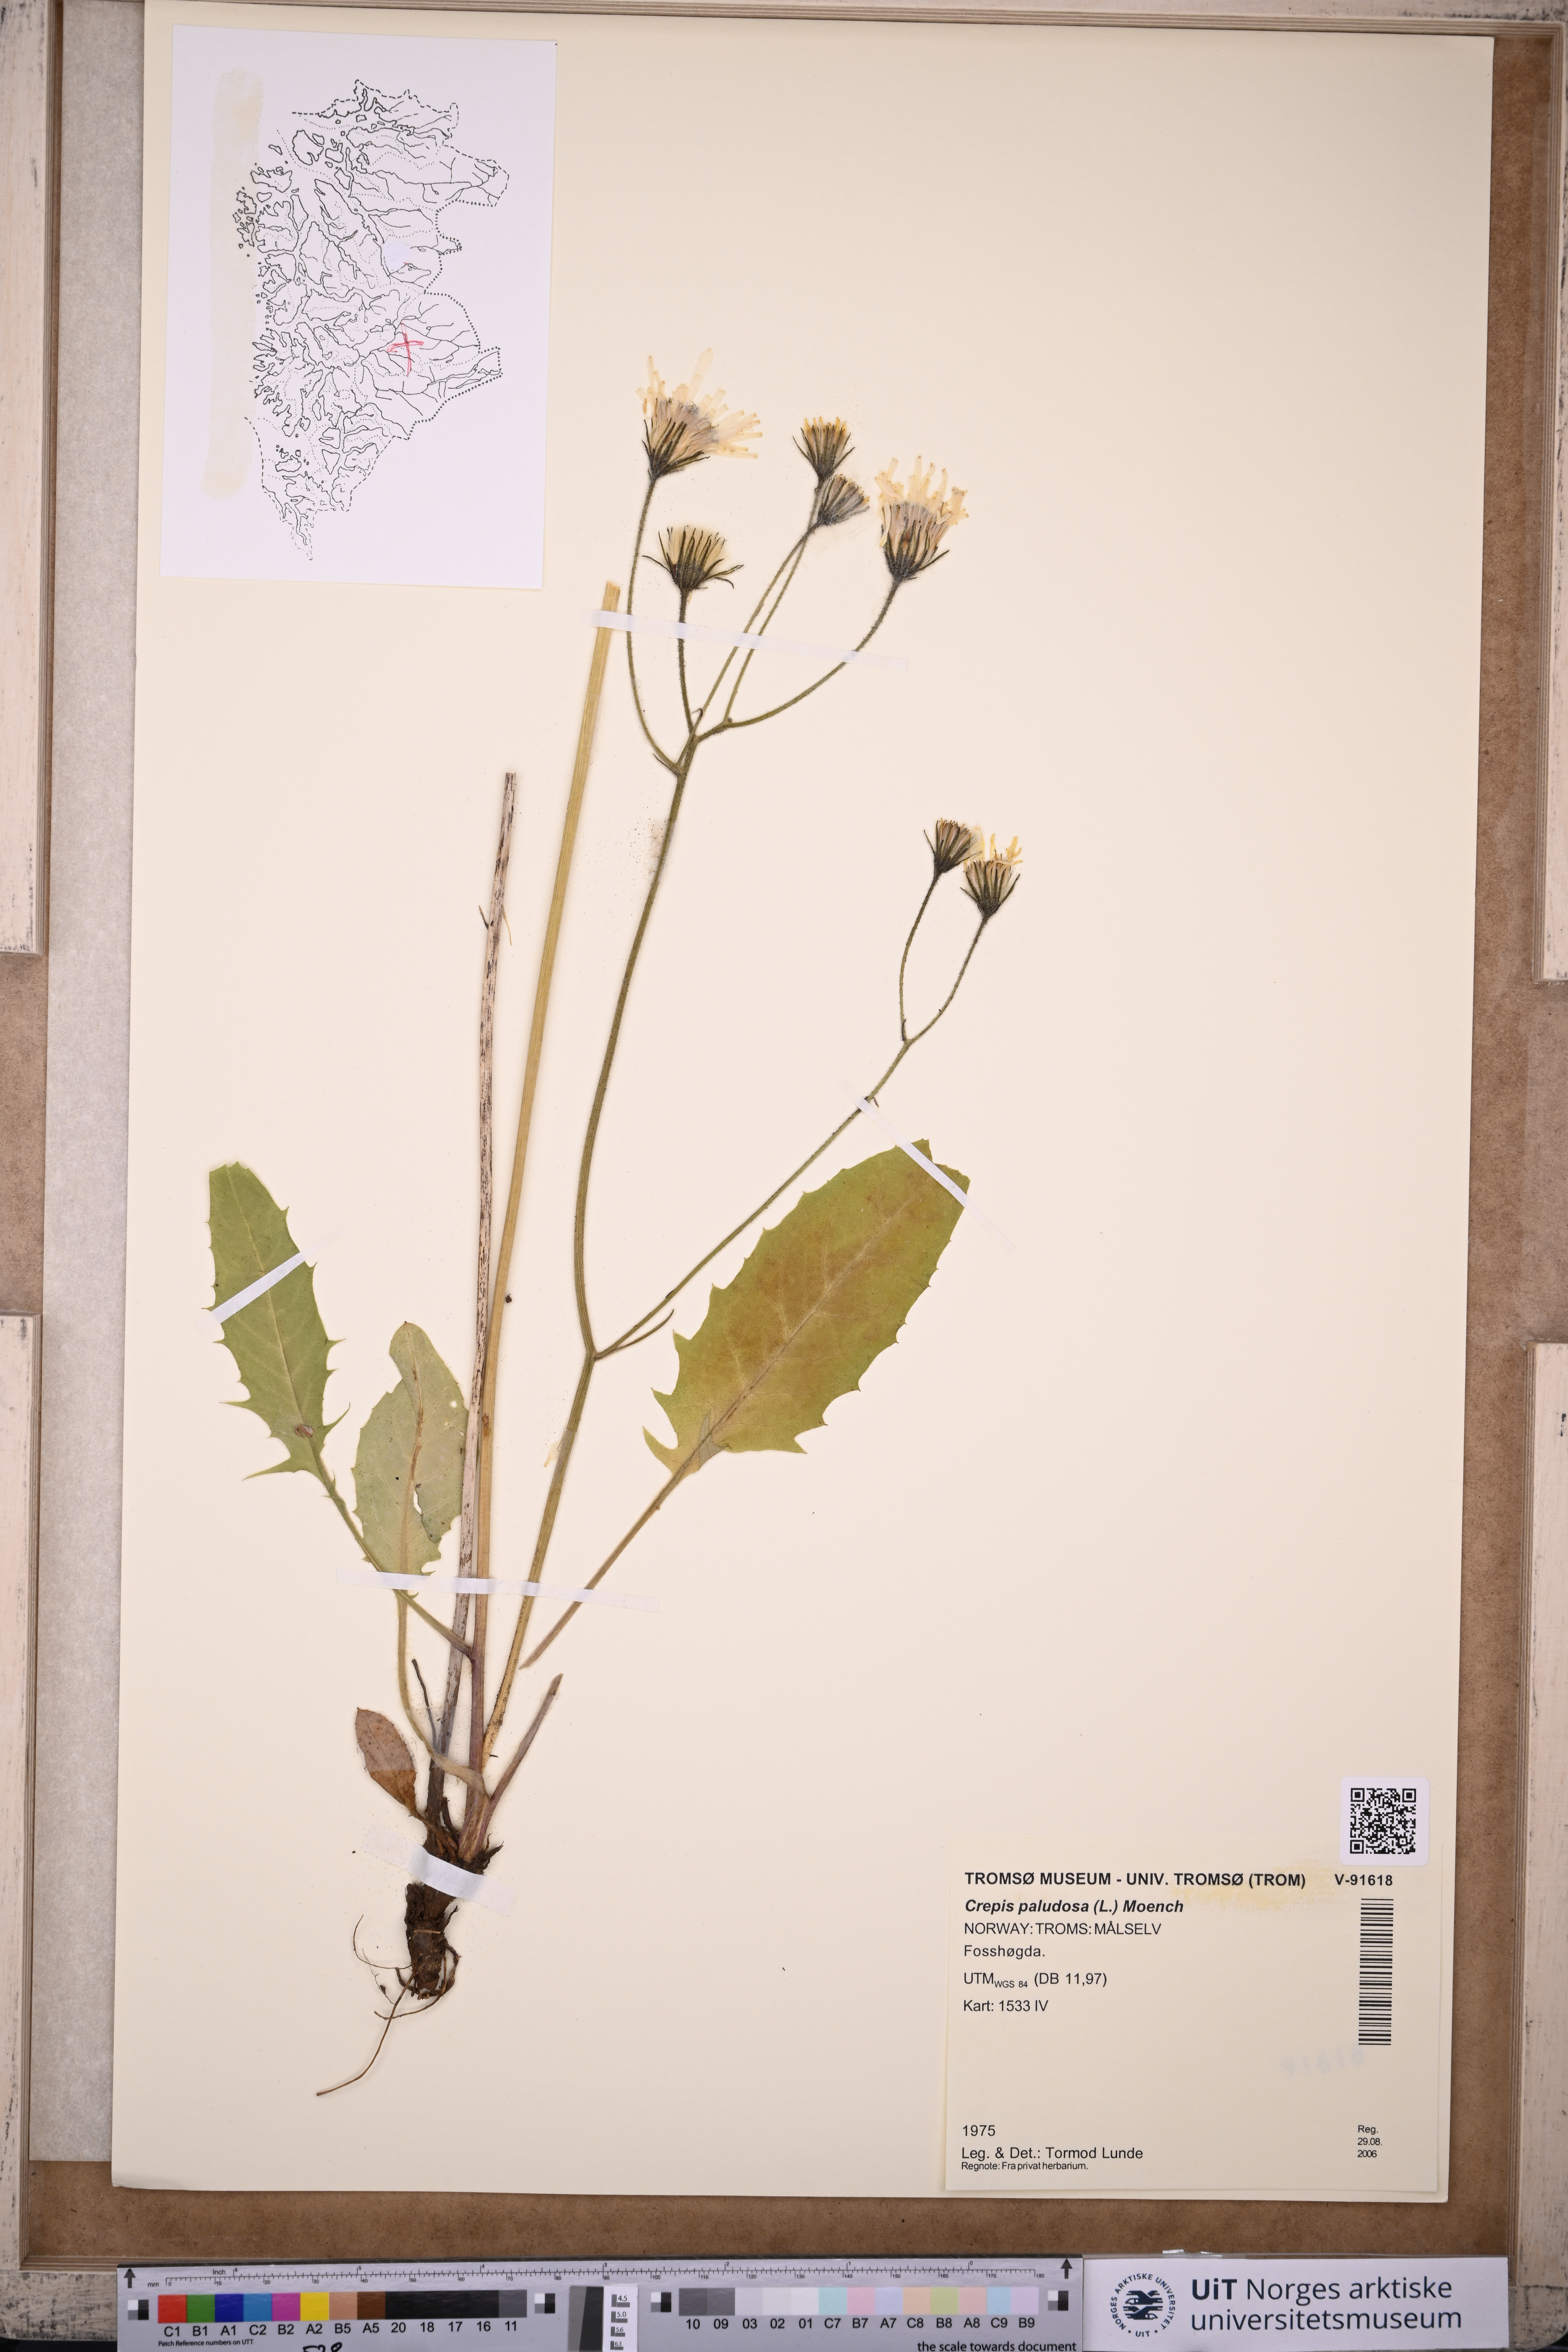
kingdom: Plantae
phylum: Tracheophyta
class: Magnoliopsida
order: Asterales
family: Asteraceae
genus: Crepis
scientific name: Crepis paludosa
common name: Marsh hawk's-beard
